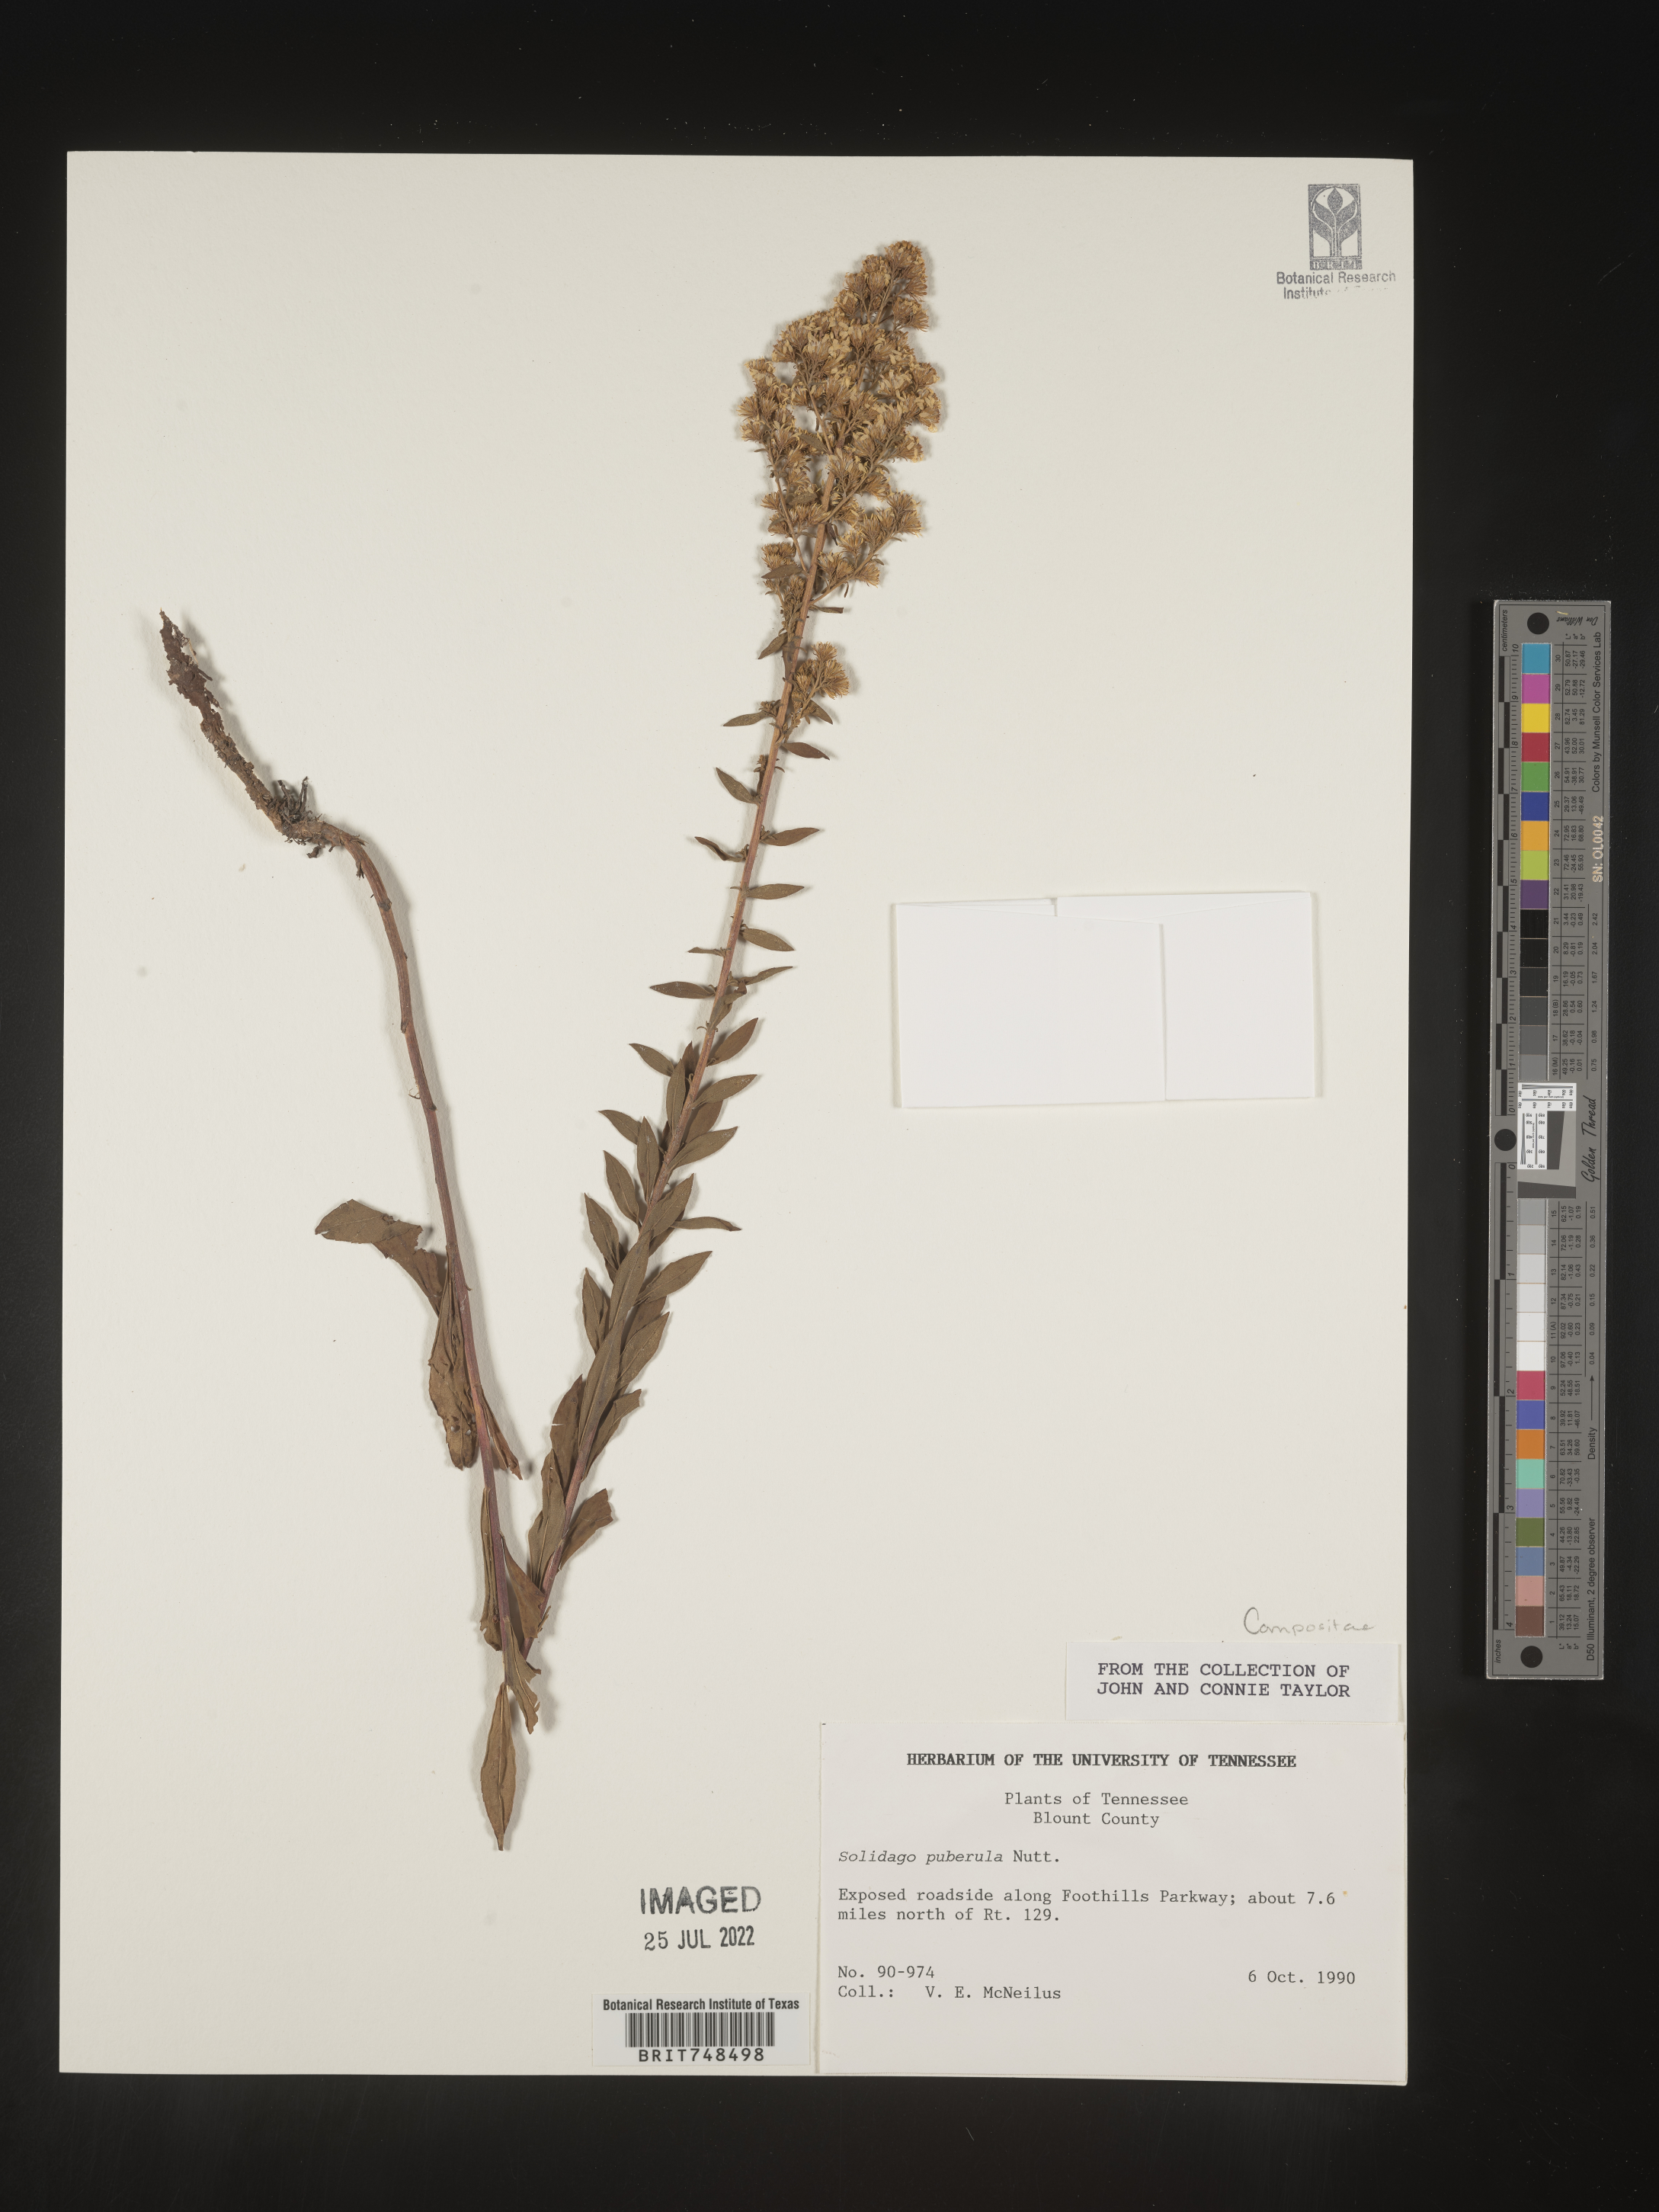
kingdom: Plantae
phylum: Tracheophyta
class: Magnoliopsida
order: Asterales
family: Asteraceae
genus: Solidago
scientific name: Solidago puberula
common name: Downy goldenrod
